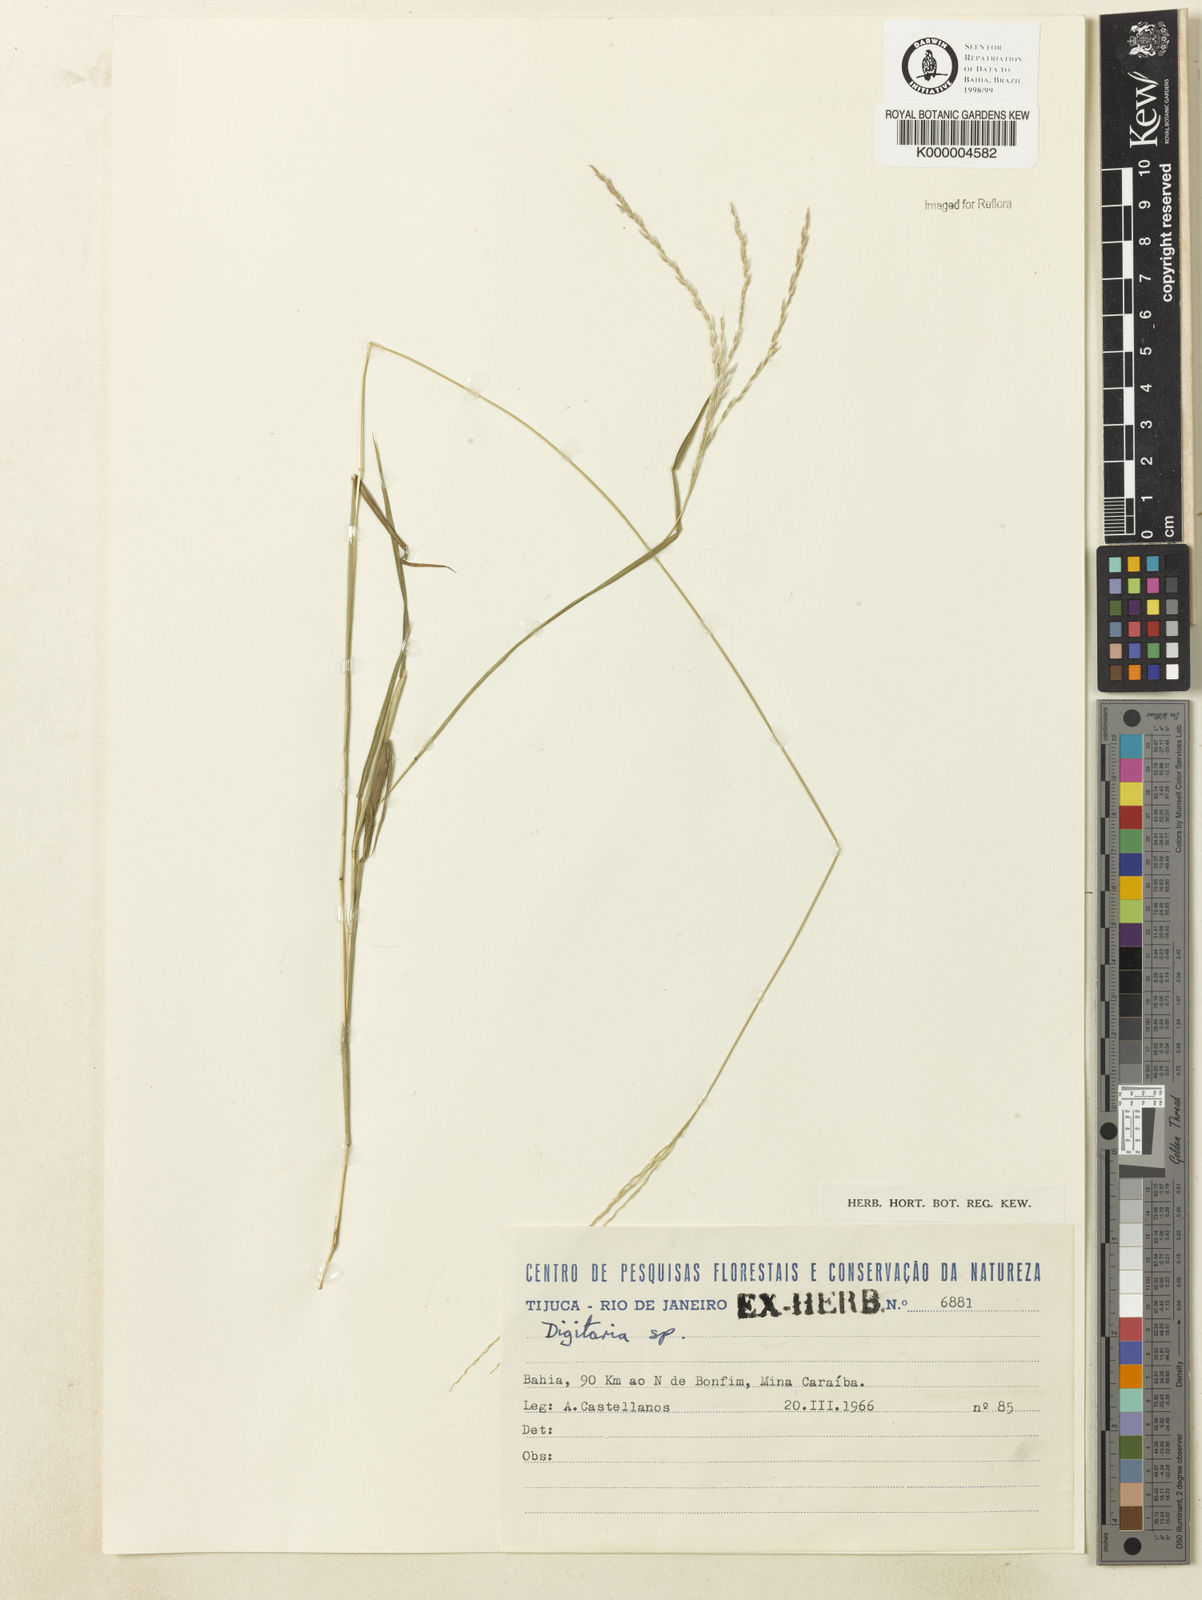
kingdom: Plantae
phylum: Tracheophyta
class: Liliopsida
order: Poales
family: Poaceae
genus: Digitaria
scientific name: Digitaria tenuis
